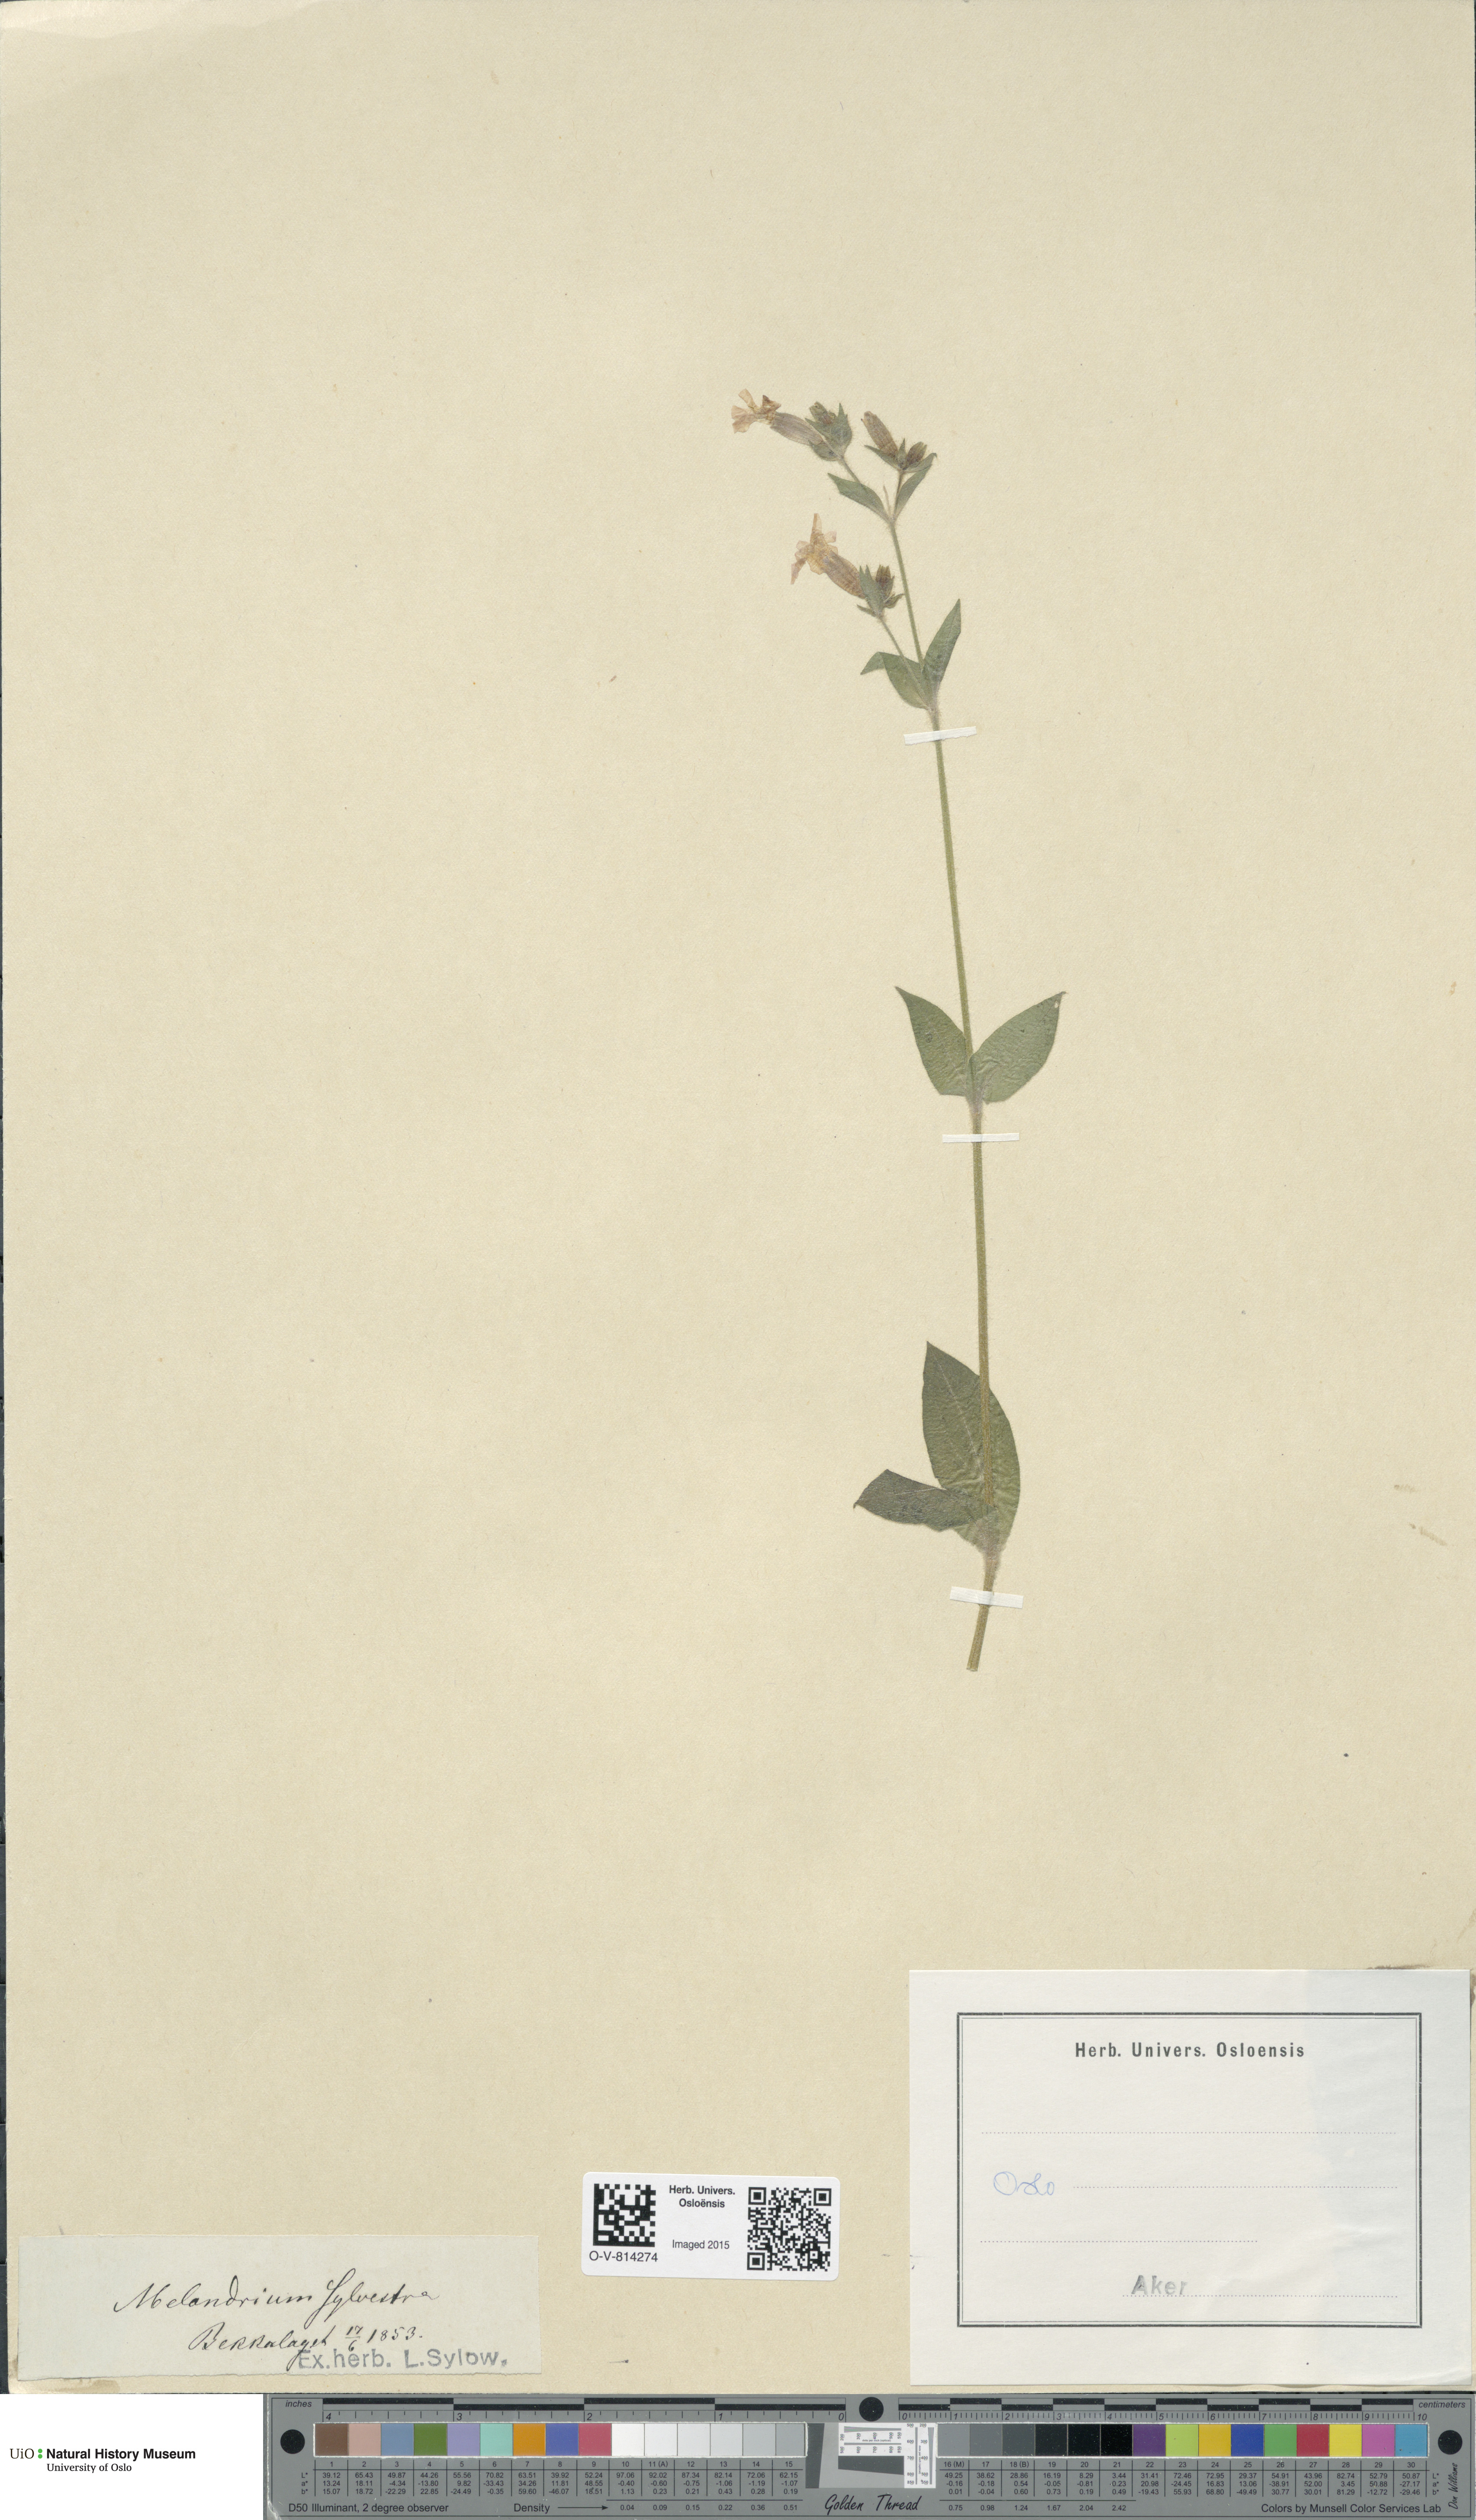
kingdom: Plantae
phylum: Tracheophyta
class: Magnoliopsida
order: Caryophyllales
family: Caryophyllaceae
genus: Silene
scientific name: Silene dioica
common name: Red campion
